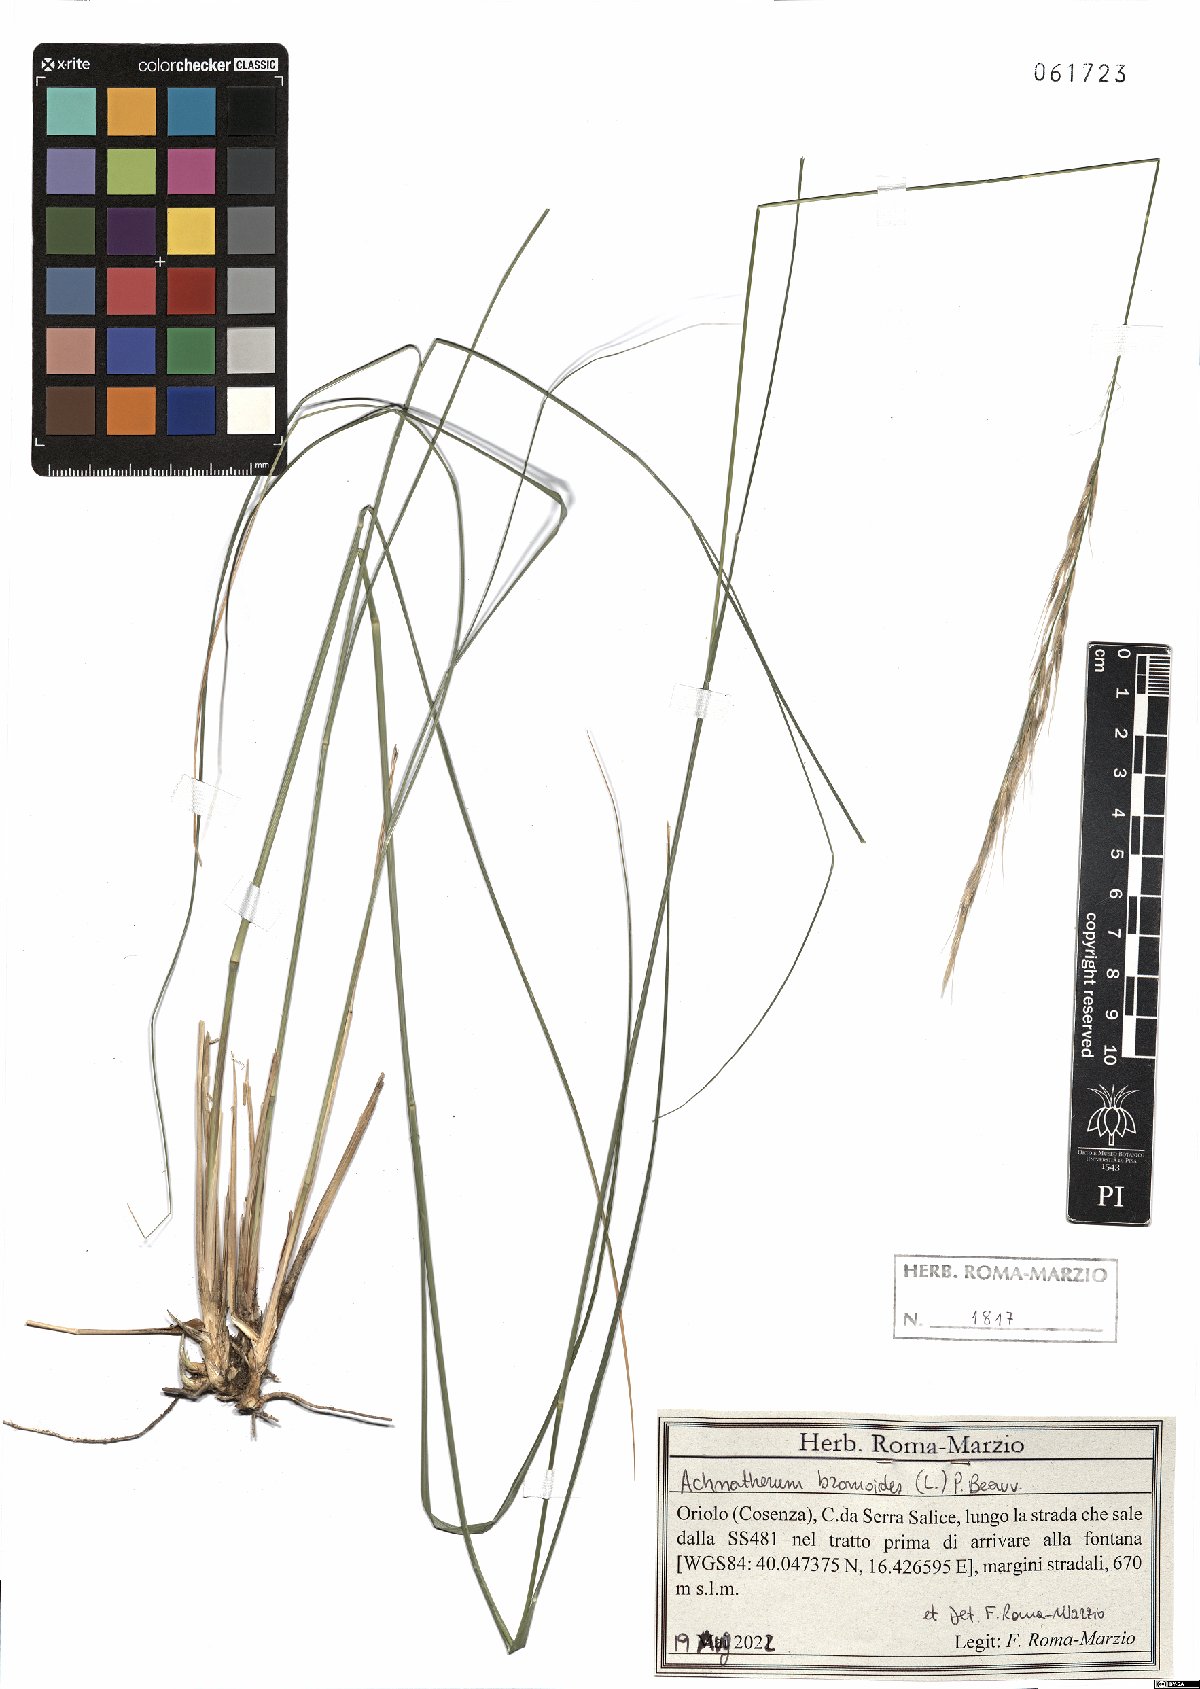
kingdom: Plantae
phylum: Tracheophyta
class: Liliopsida
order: Poales
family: Poaceae
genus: Achnatherum
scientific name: Achnatherum bromoides
